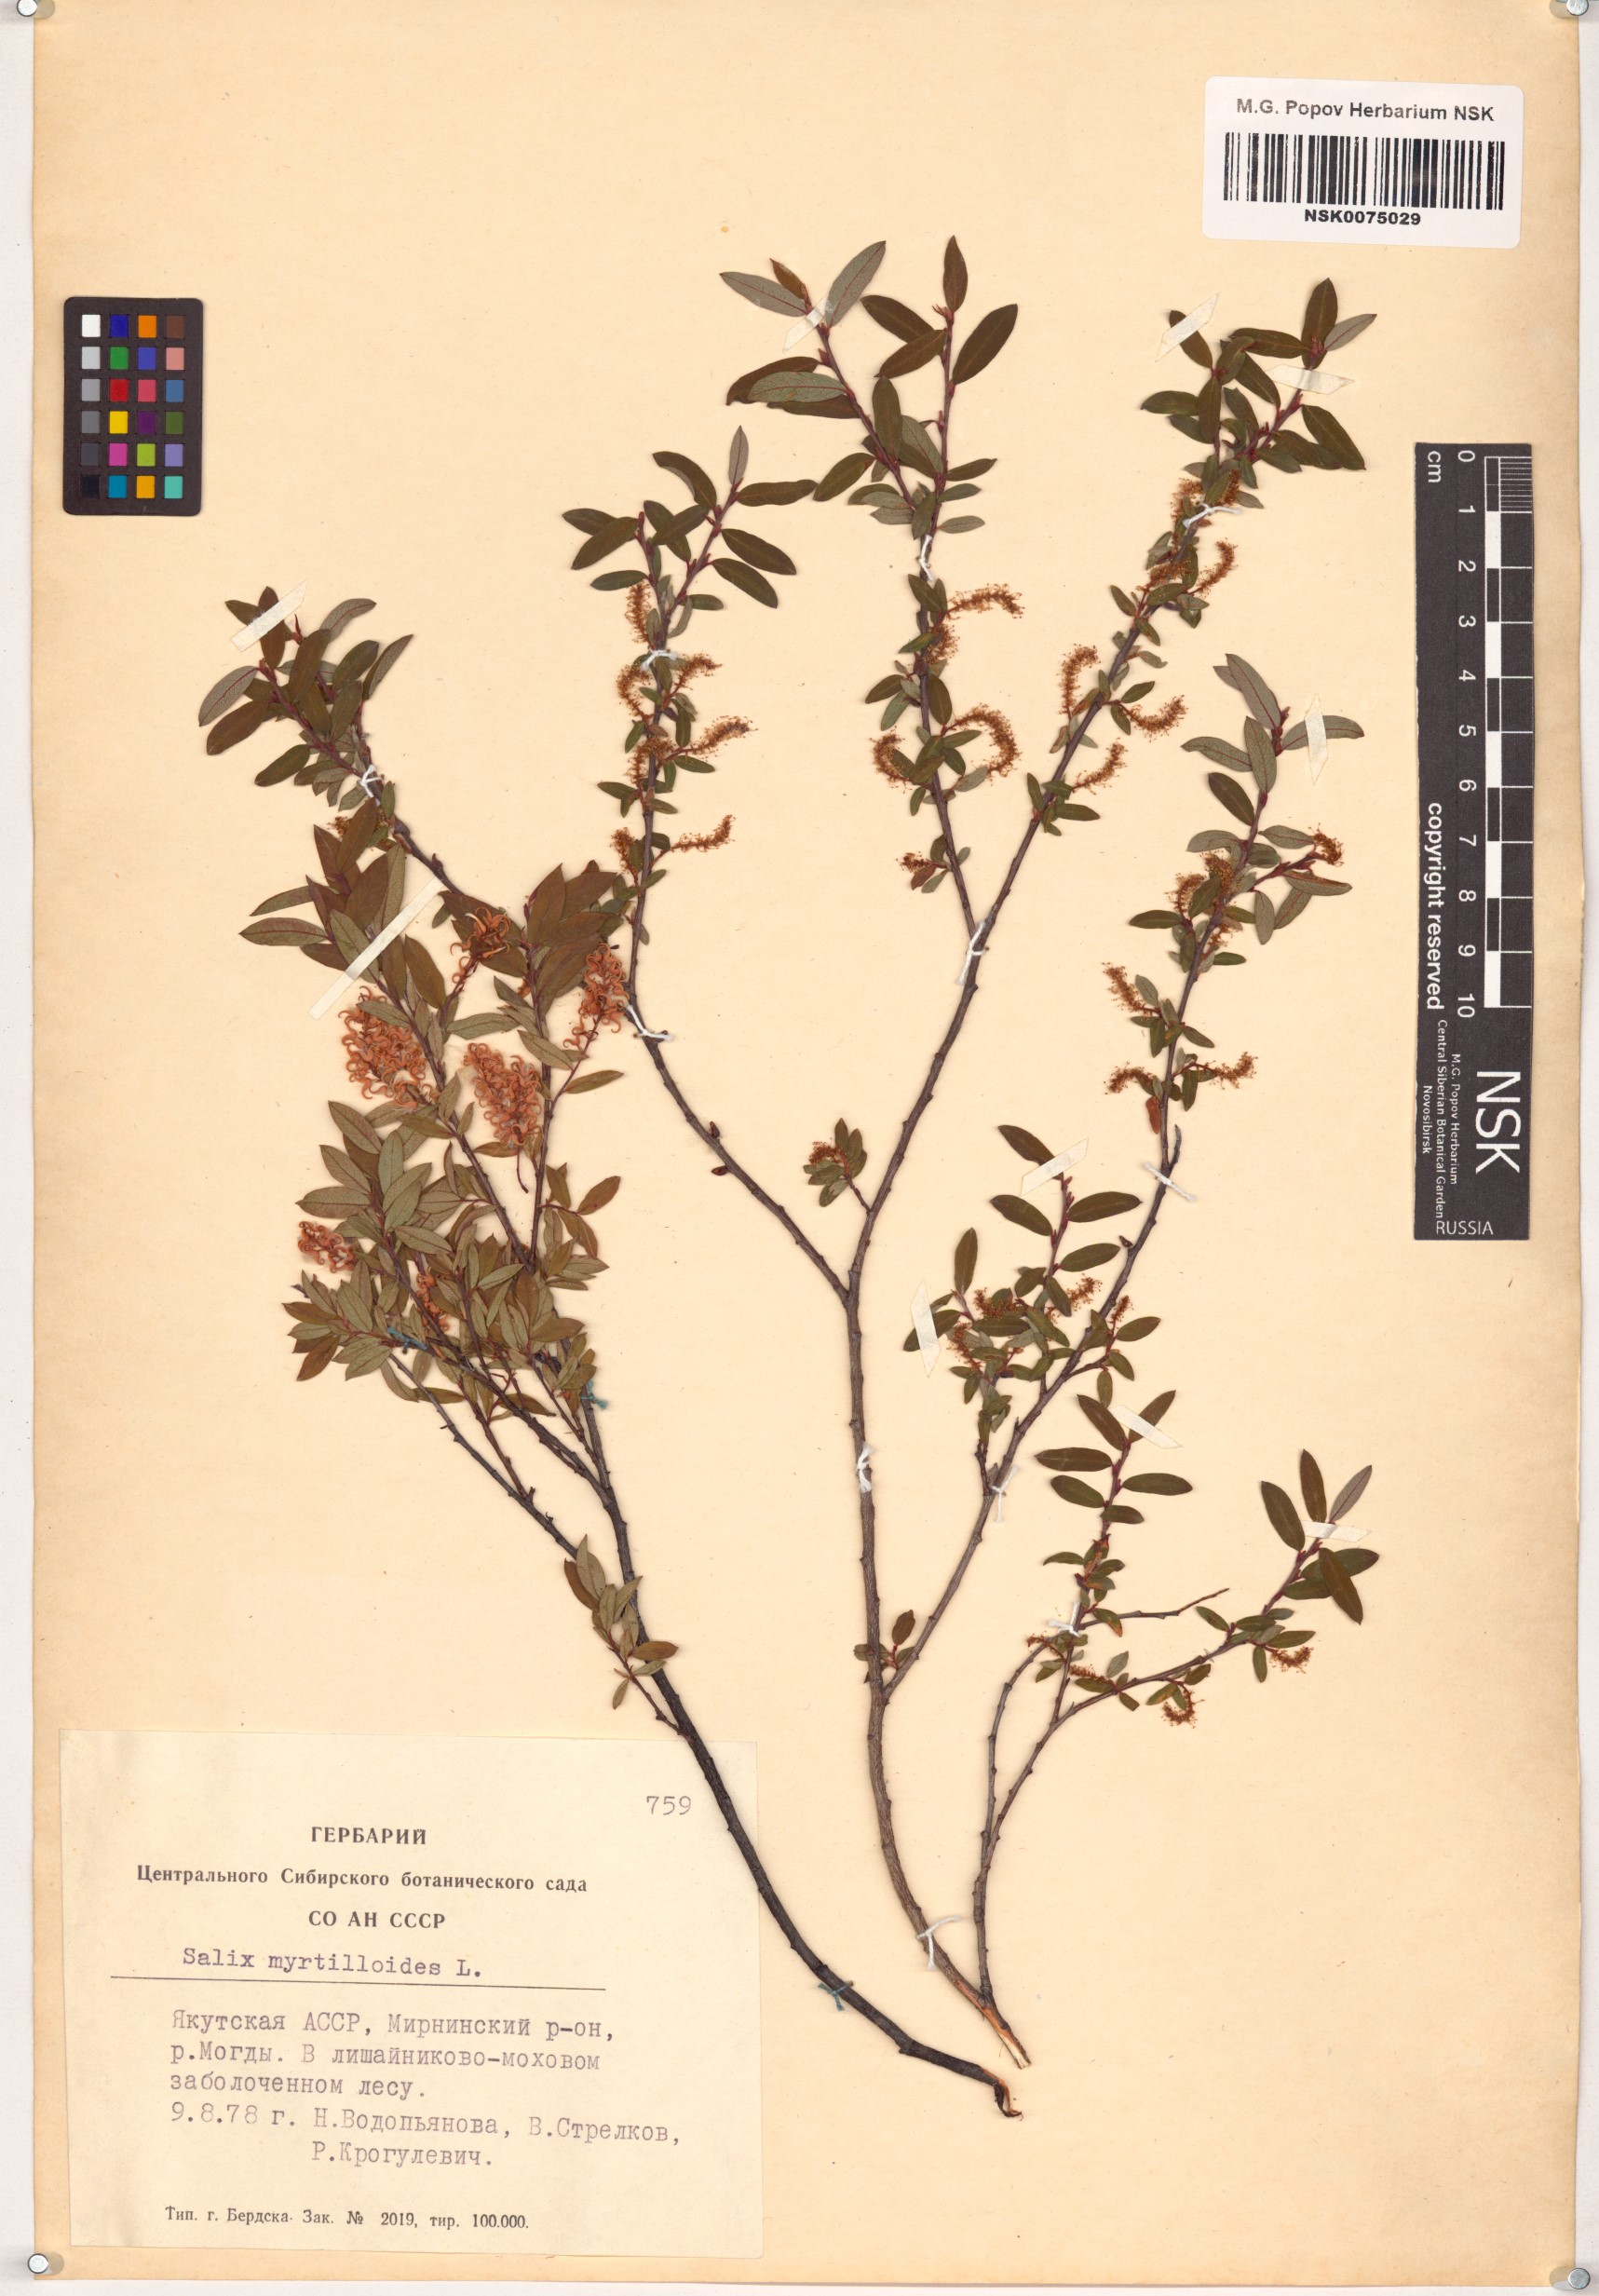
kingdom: Plantae
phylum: Tracheophyta
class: Magnoliopsida
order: Malpighiales
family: Salicaceae
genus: Salix
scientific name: Salix myrtilloides
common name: Myrtle-leaved willow
